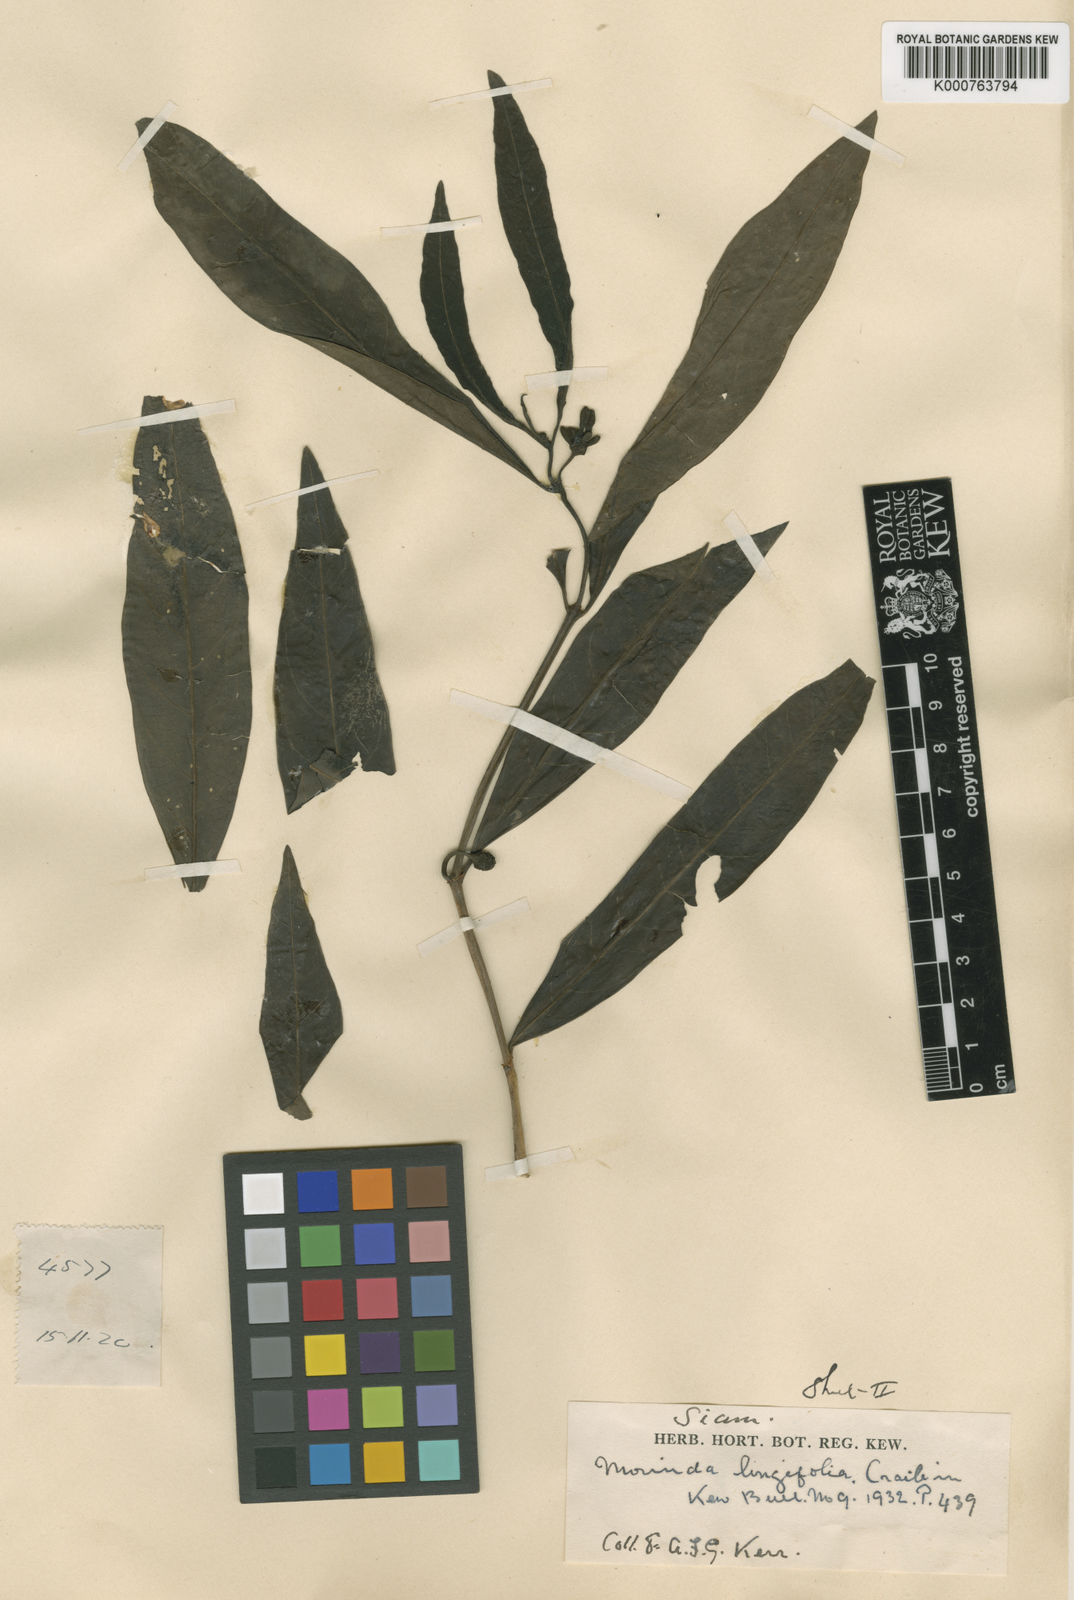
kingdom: Plantae
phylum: Tracheophyta
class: Magnoliopsida
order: Gentianales
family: Rubiaceae
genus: Morinda
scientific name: Morinda persicifolia
